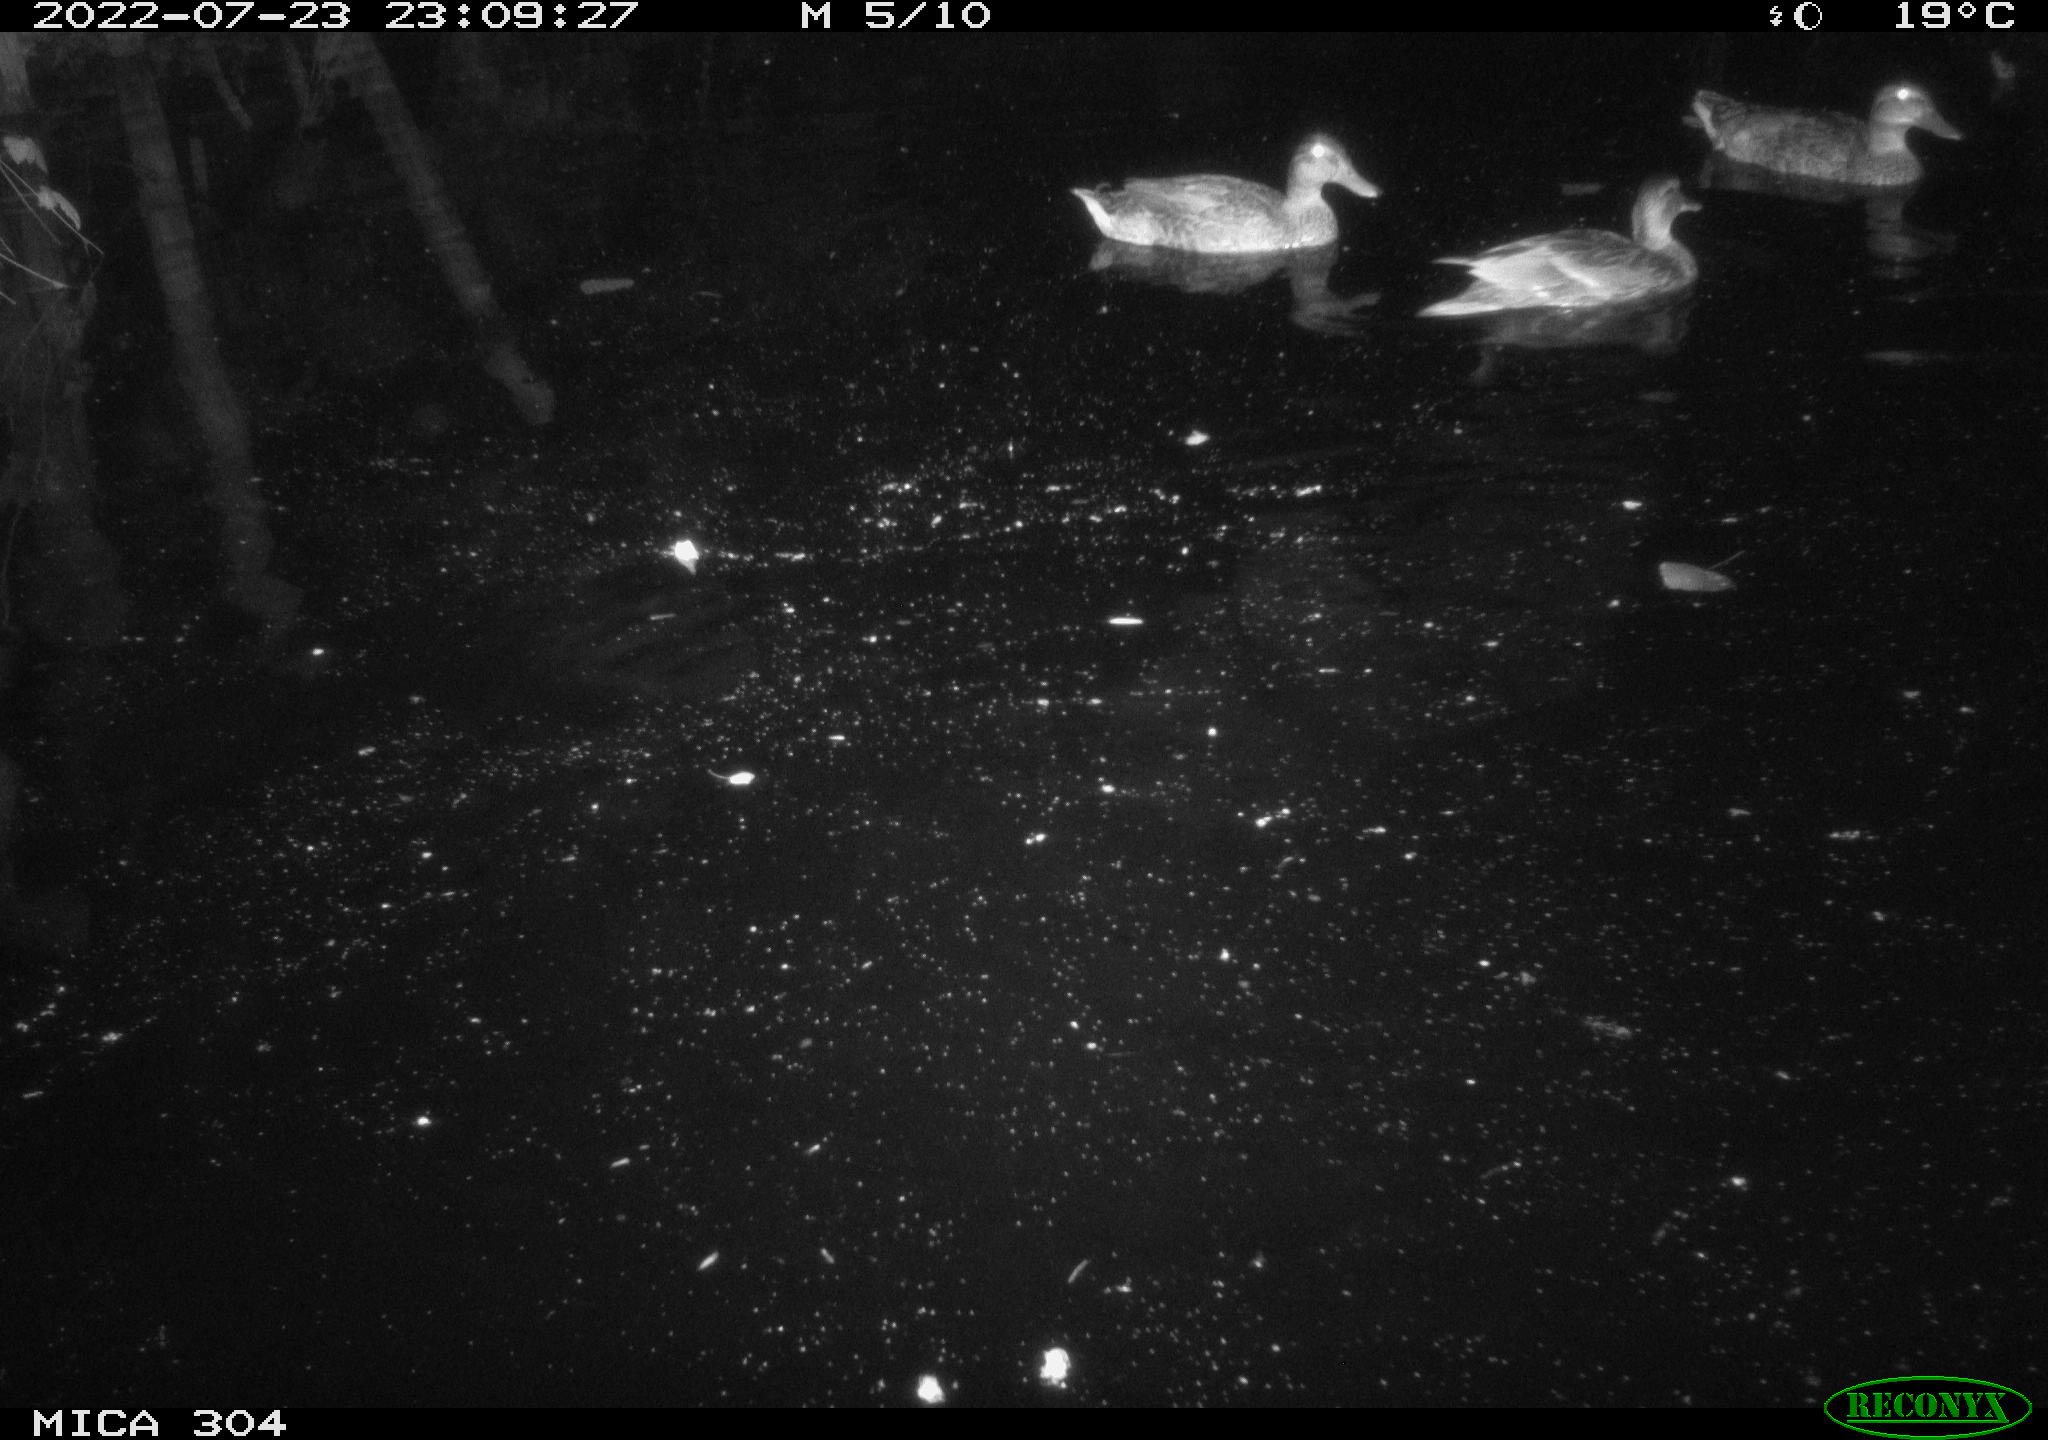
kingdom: Animalia
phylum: Chordata
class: Aves
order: Anseriformes
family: Anatidae
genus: Mareca
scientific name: Mareca strepera
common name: Gadwall
